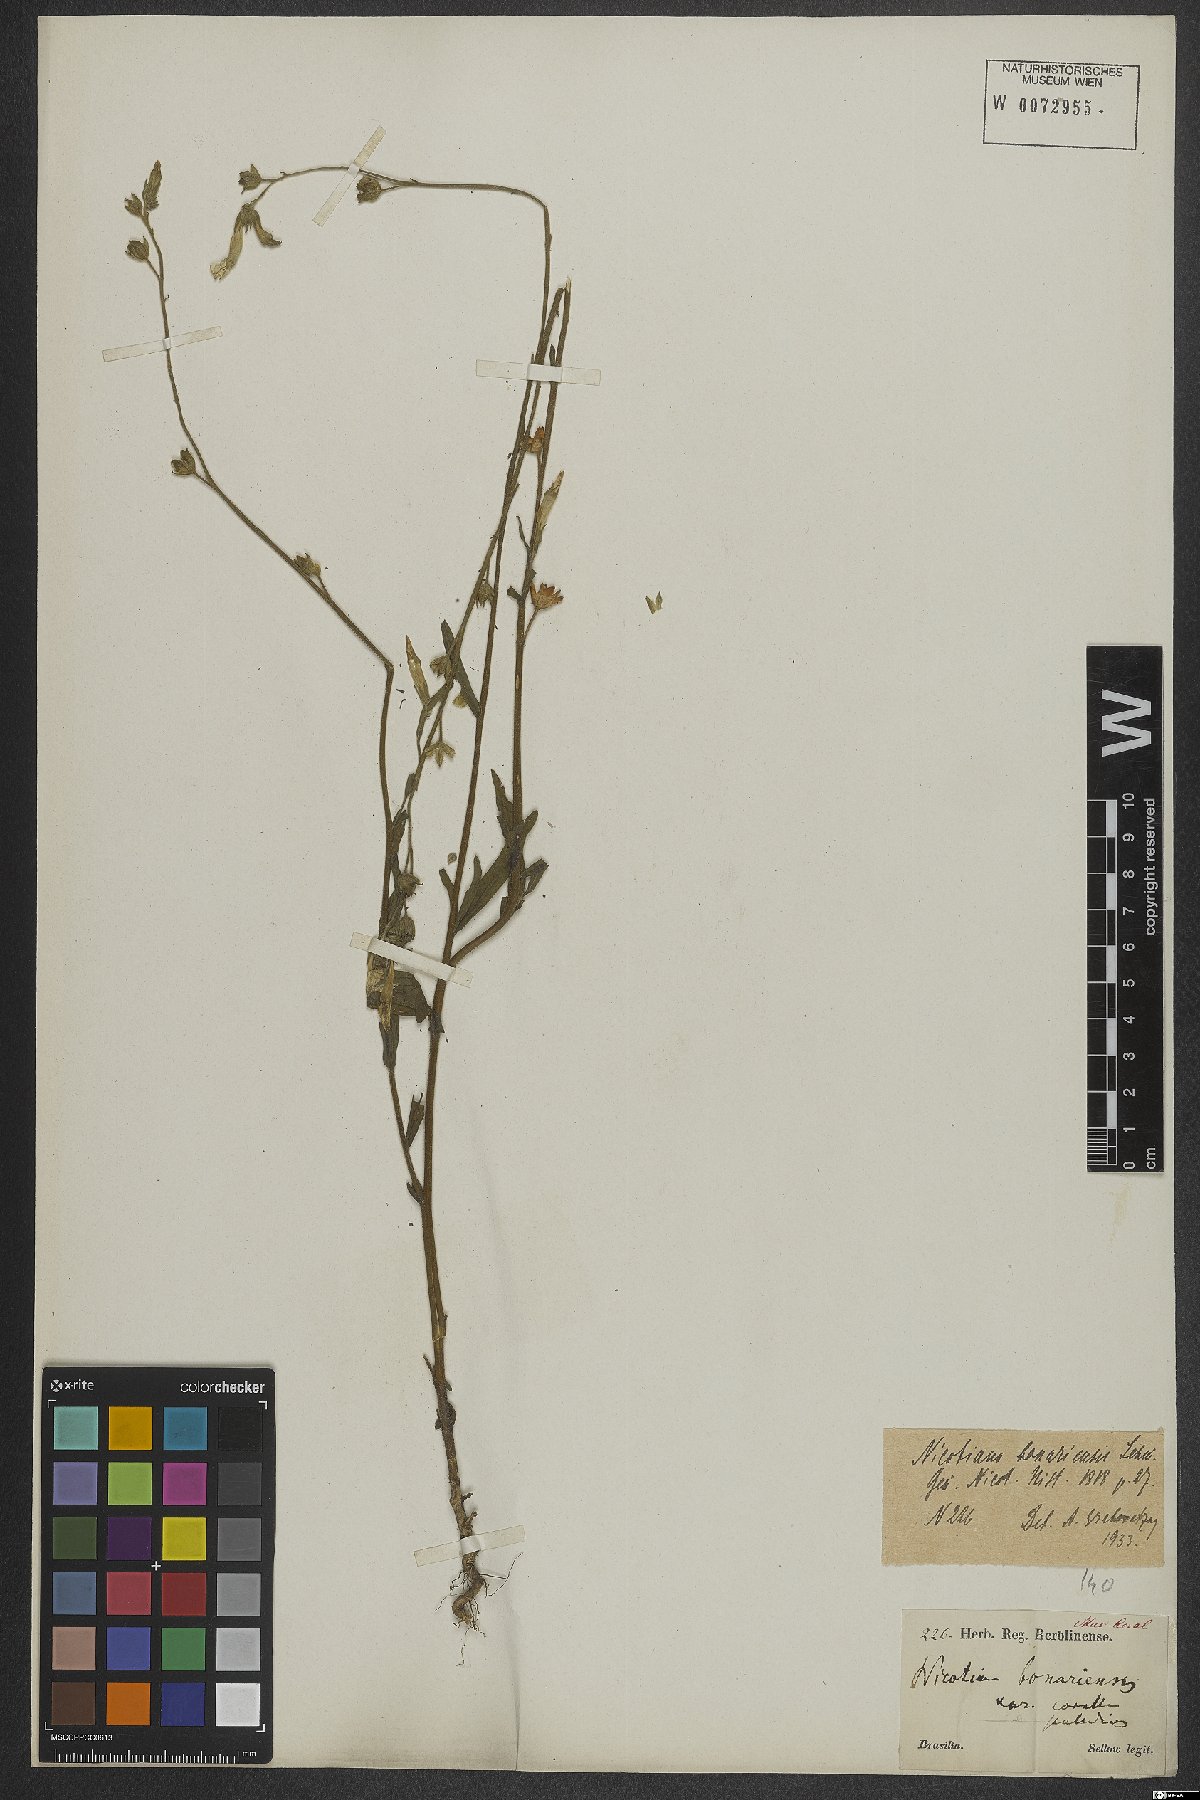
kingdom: Plantae
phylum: Tracheophyta
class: Magnoliopsida
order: Solanales
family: Solanaceae
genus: Nicotiana
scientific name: Nicotiana bonariensis
